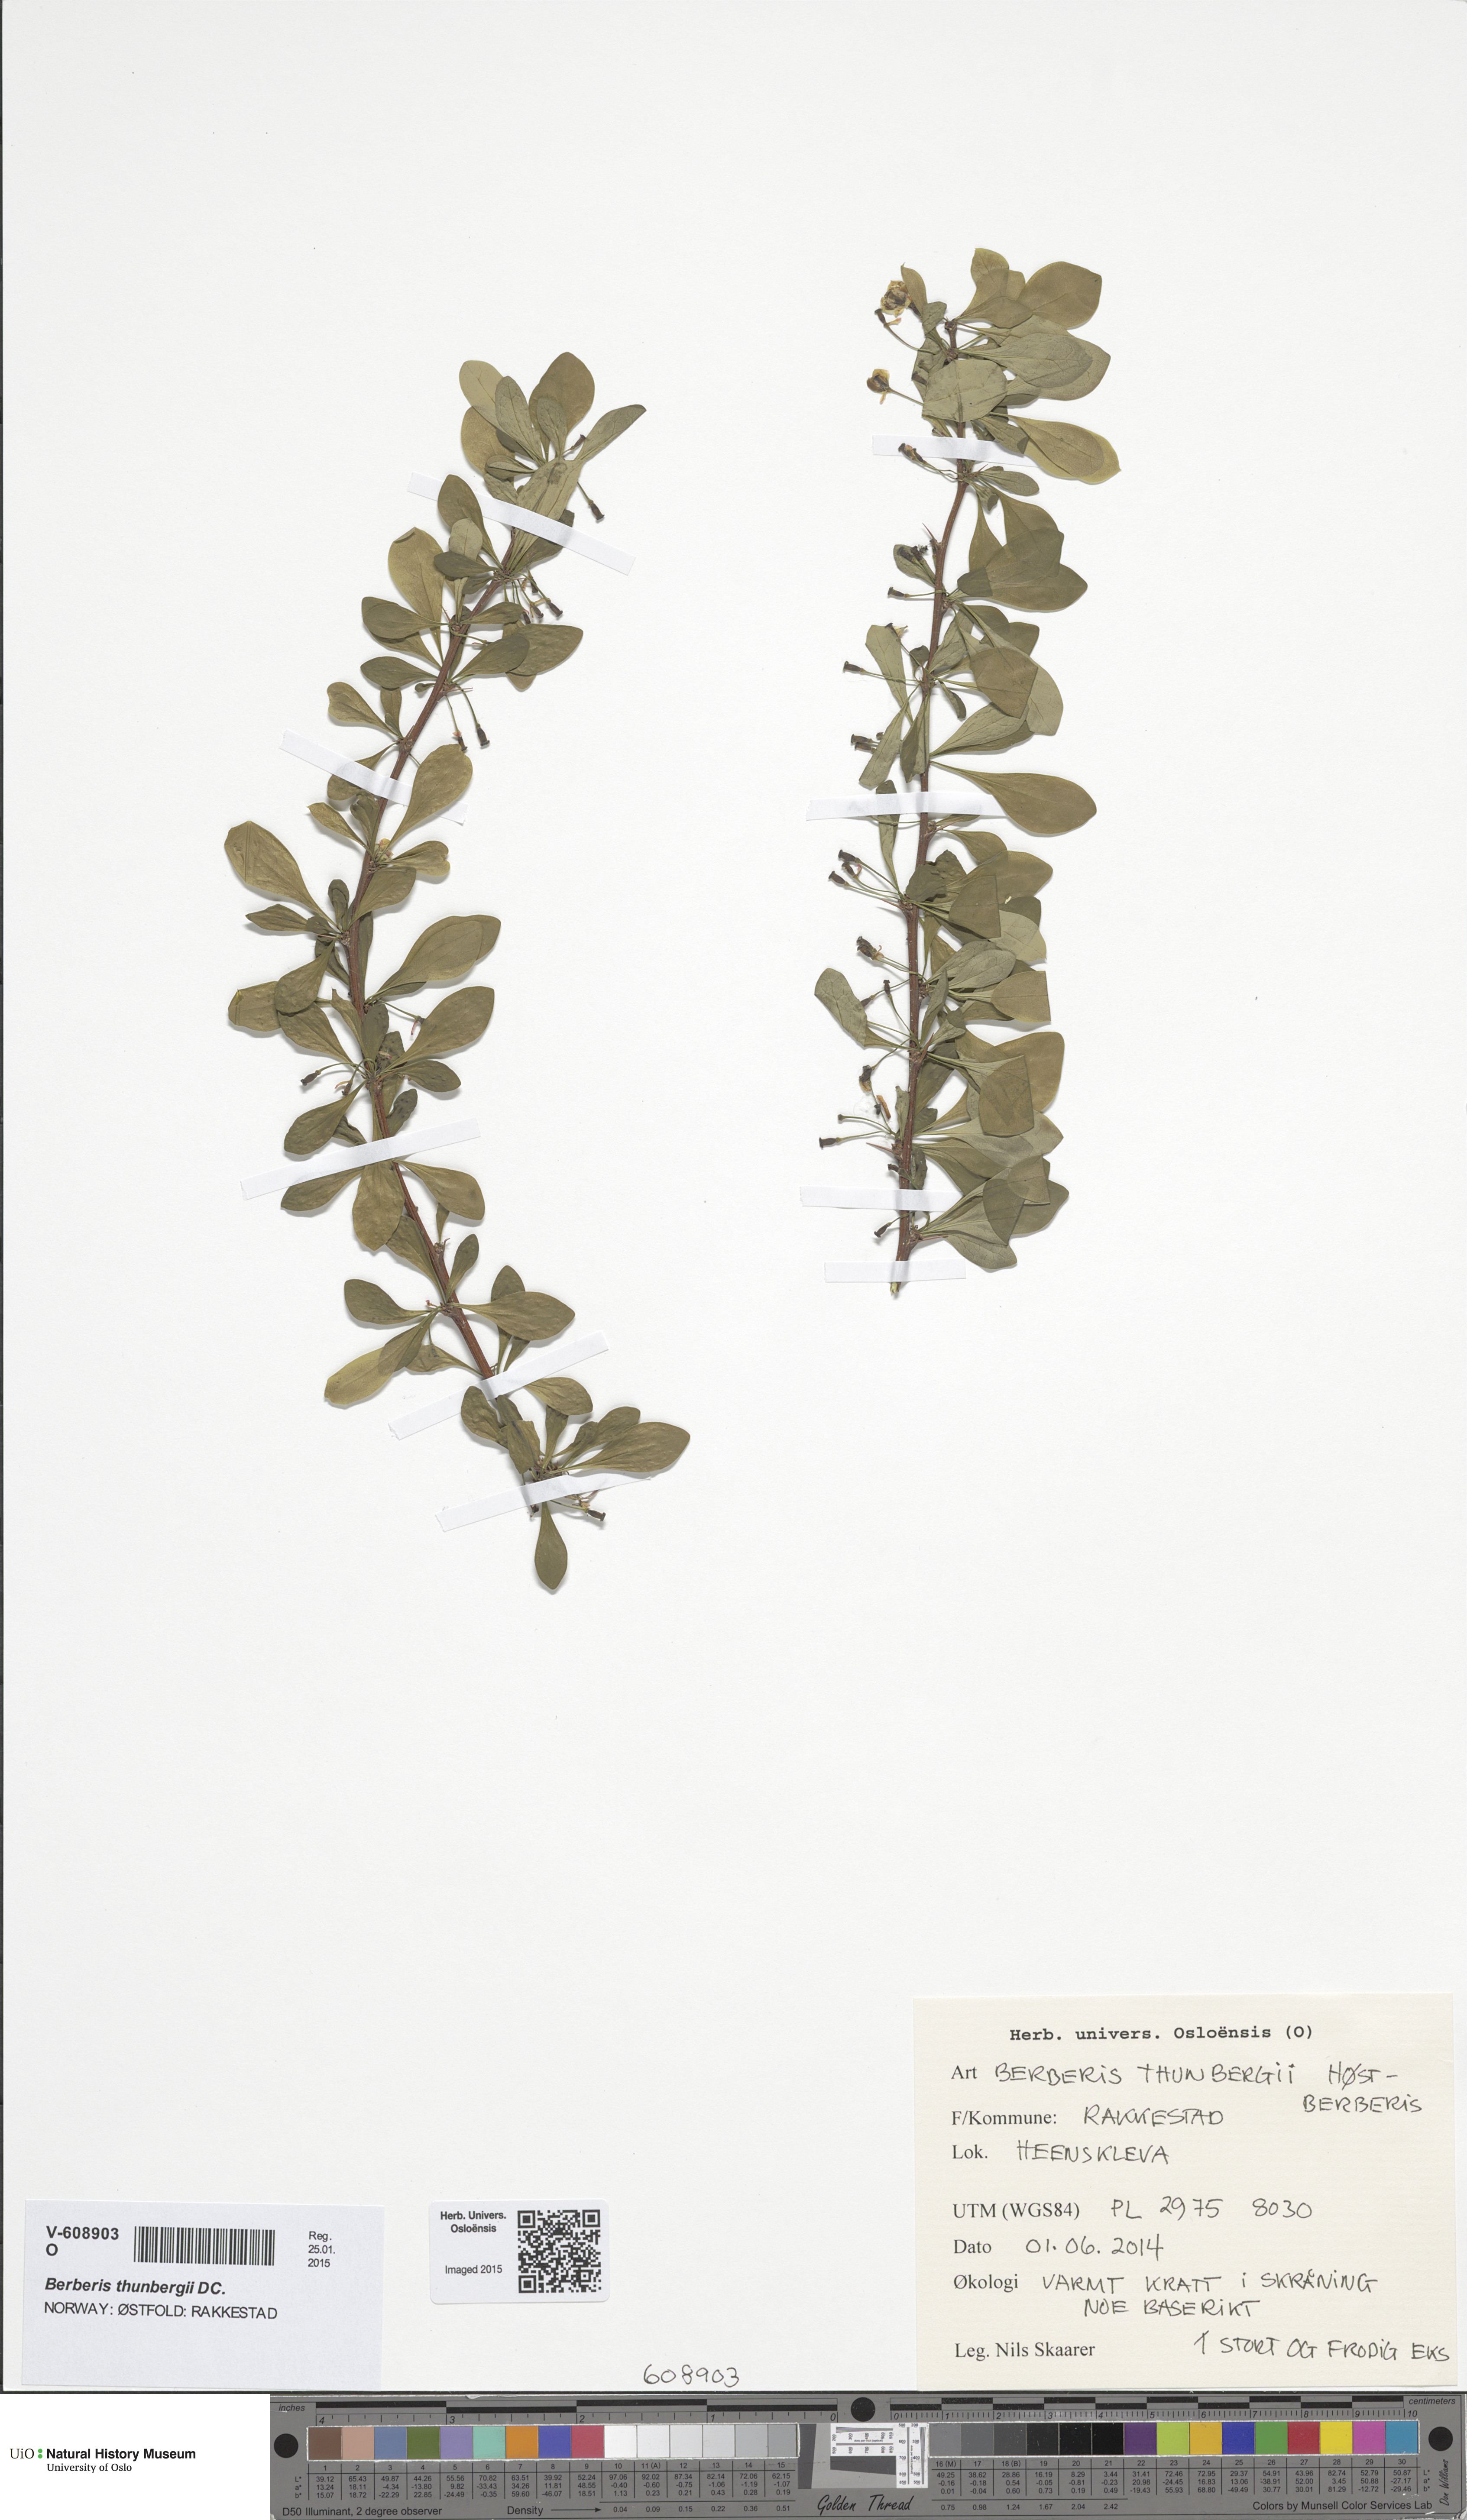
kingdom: Plantae
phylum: Tracheophyta
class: Magnoliopsida
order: Ranunculales
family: Berberidaceae
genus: Berberis
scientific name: Berberis thunbergii
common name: Japanese barberry
